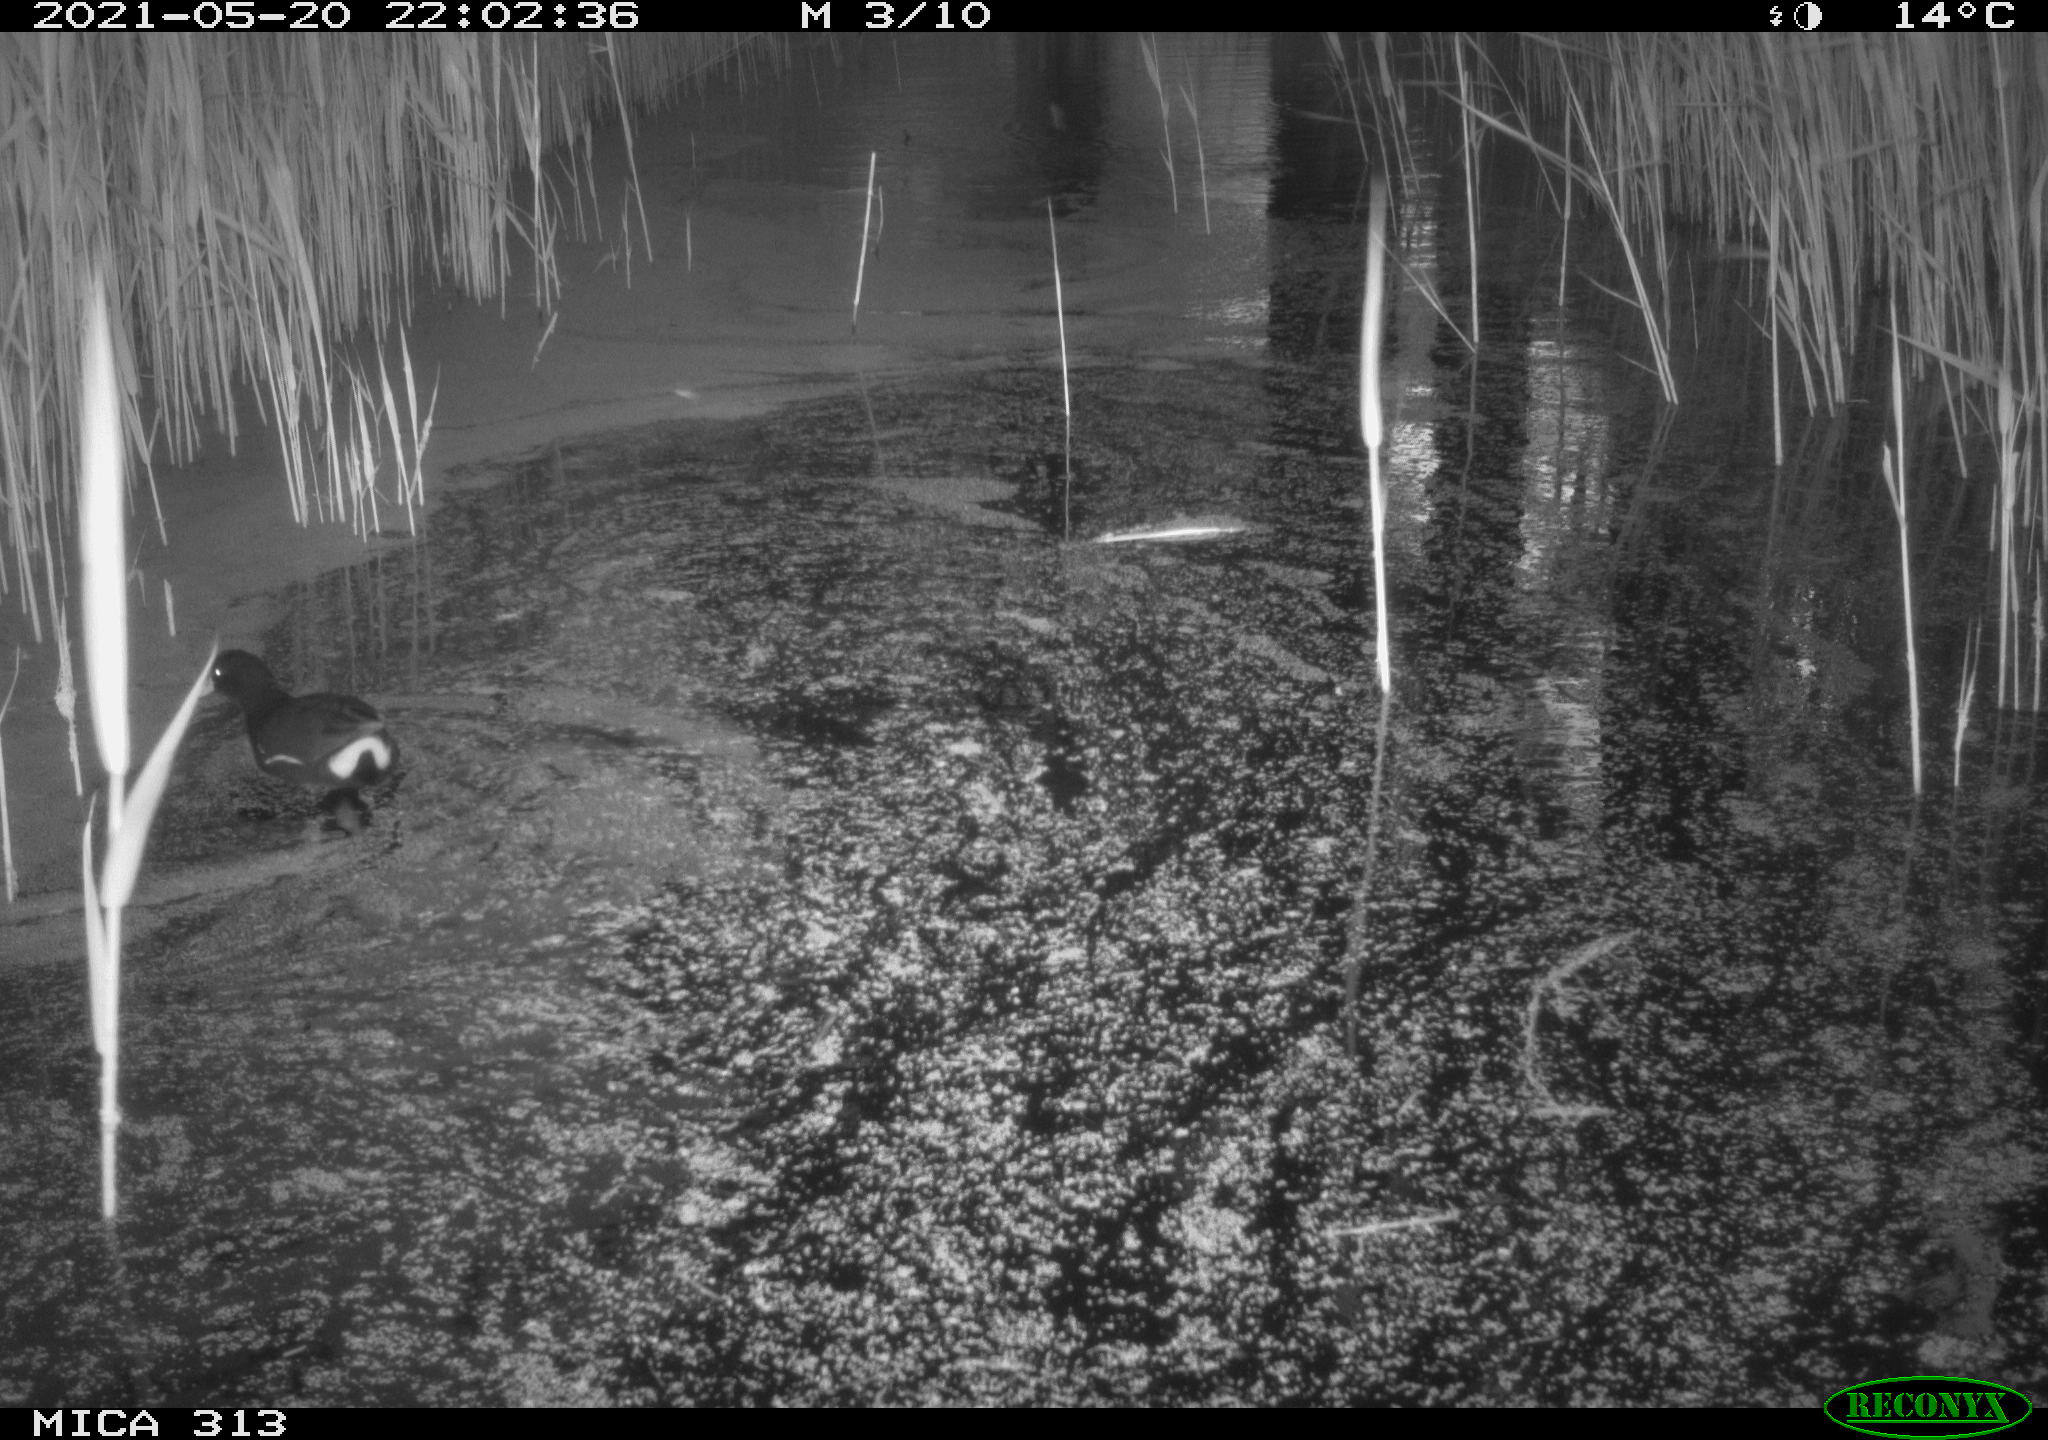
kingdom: Animalia
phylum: Chordata
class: Aves
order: Gruiformes
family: Rallidae
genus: Gallinula
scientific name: Gallinula chloropus
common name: Common moorhen
